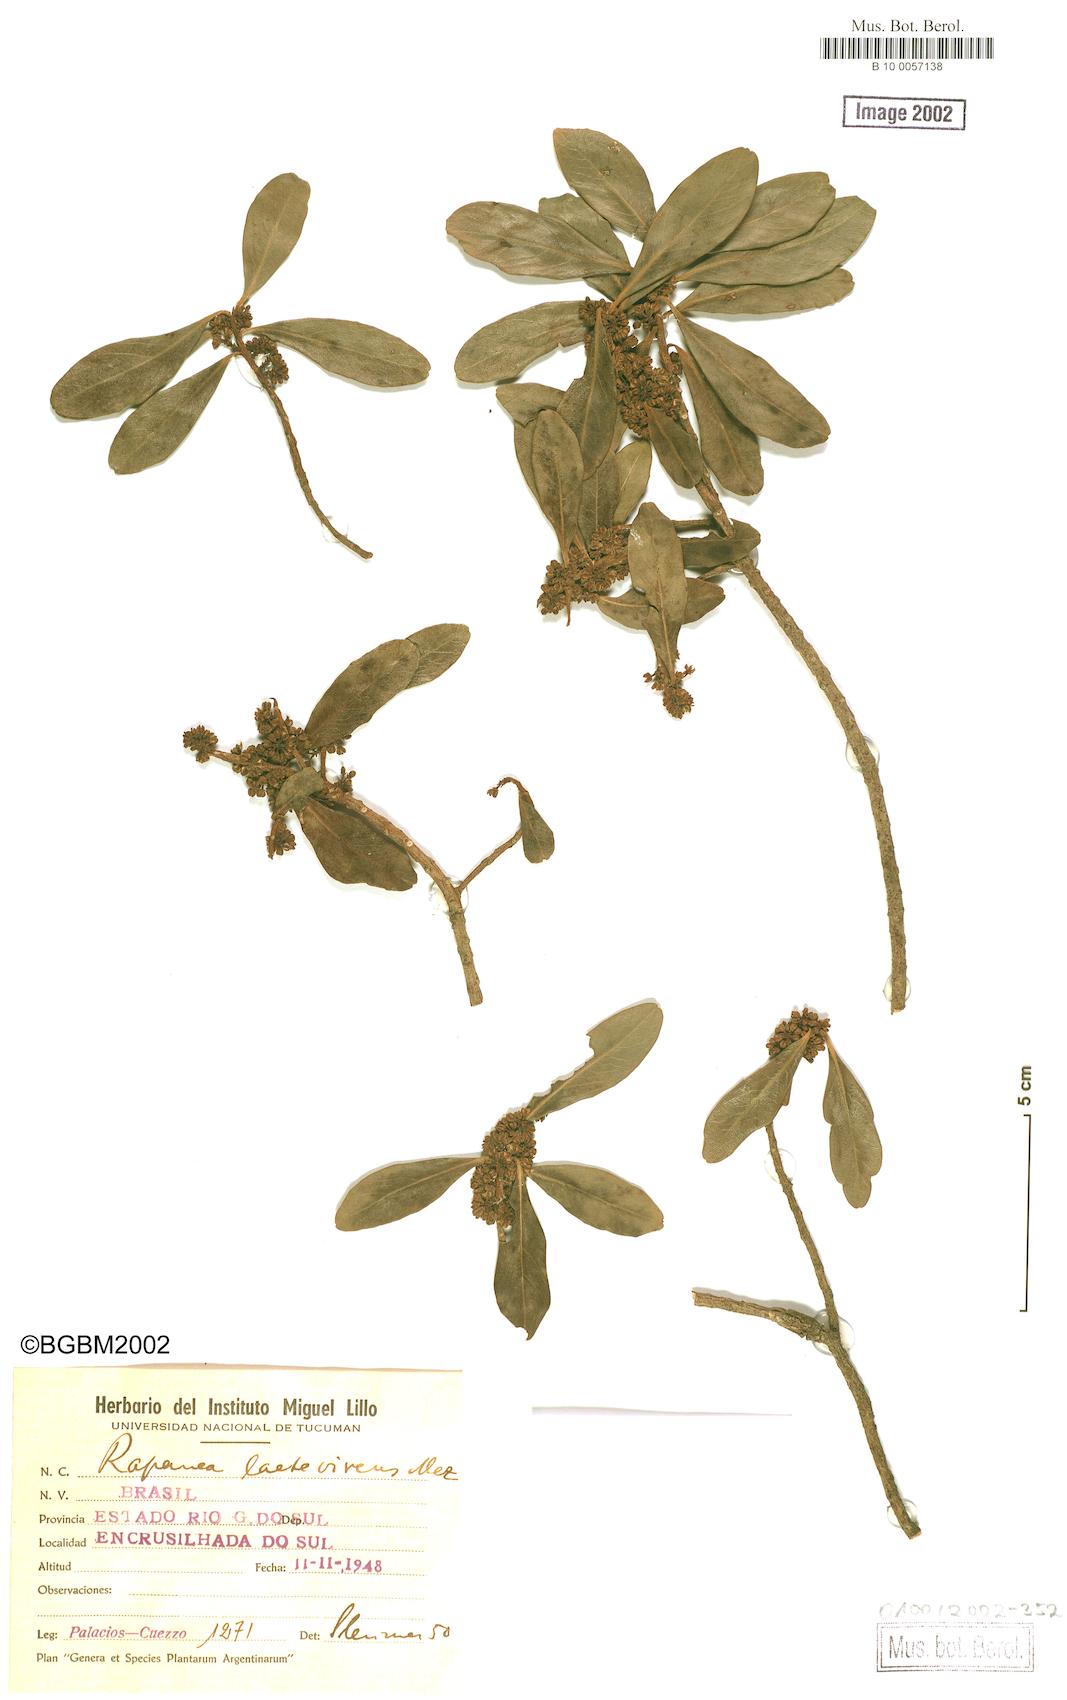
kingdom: Plantae
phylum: Tracheophyta
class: Magnoliopsida
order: Ericales
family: Primulaceae
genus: Myrsine
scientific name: Myrsine laetevirens
